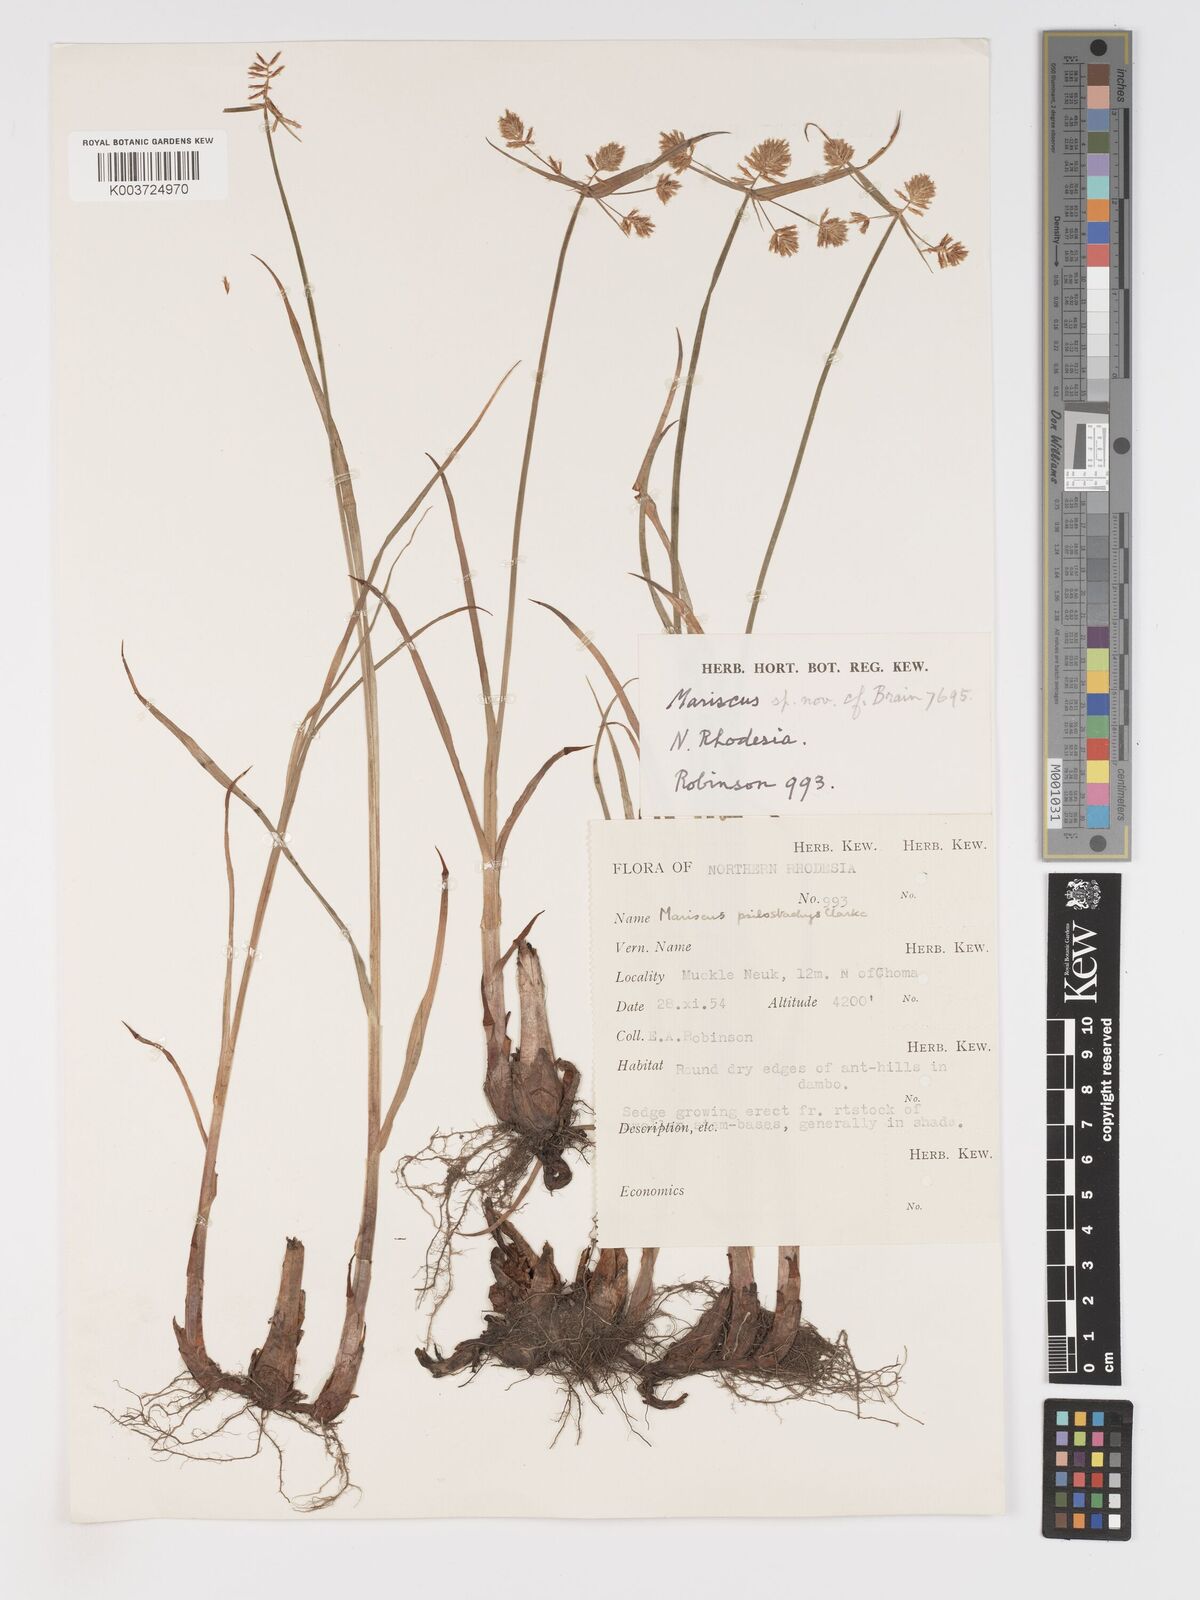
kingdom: Plantae
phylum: Tracheophyta
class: Liliopsida
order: Poales
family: Cyperaceae
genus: Cyperus
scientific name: Cyperus trigonellus
